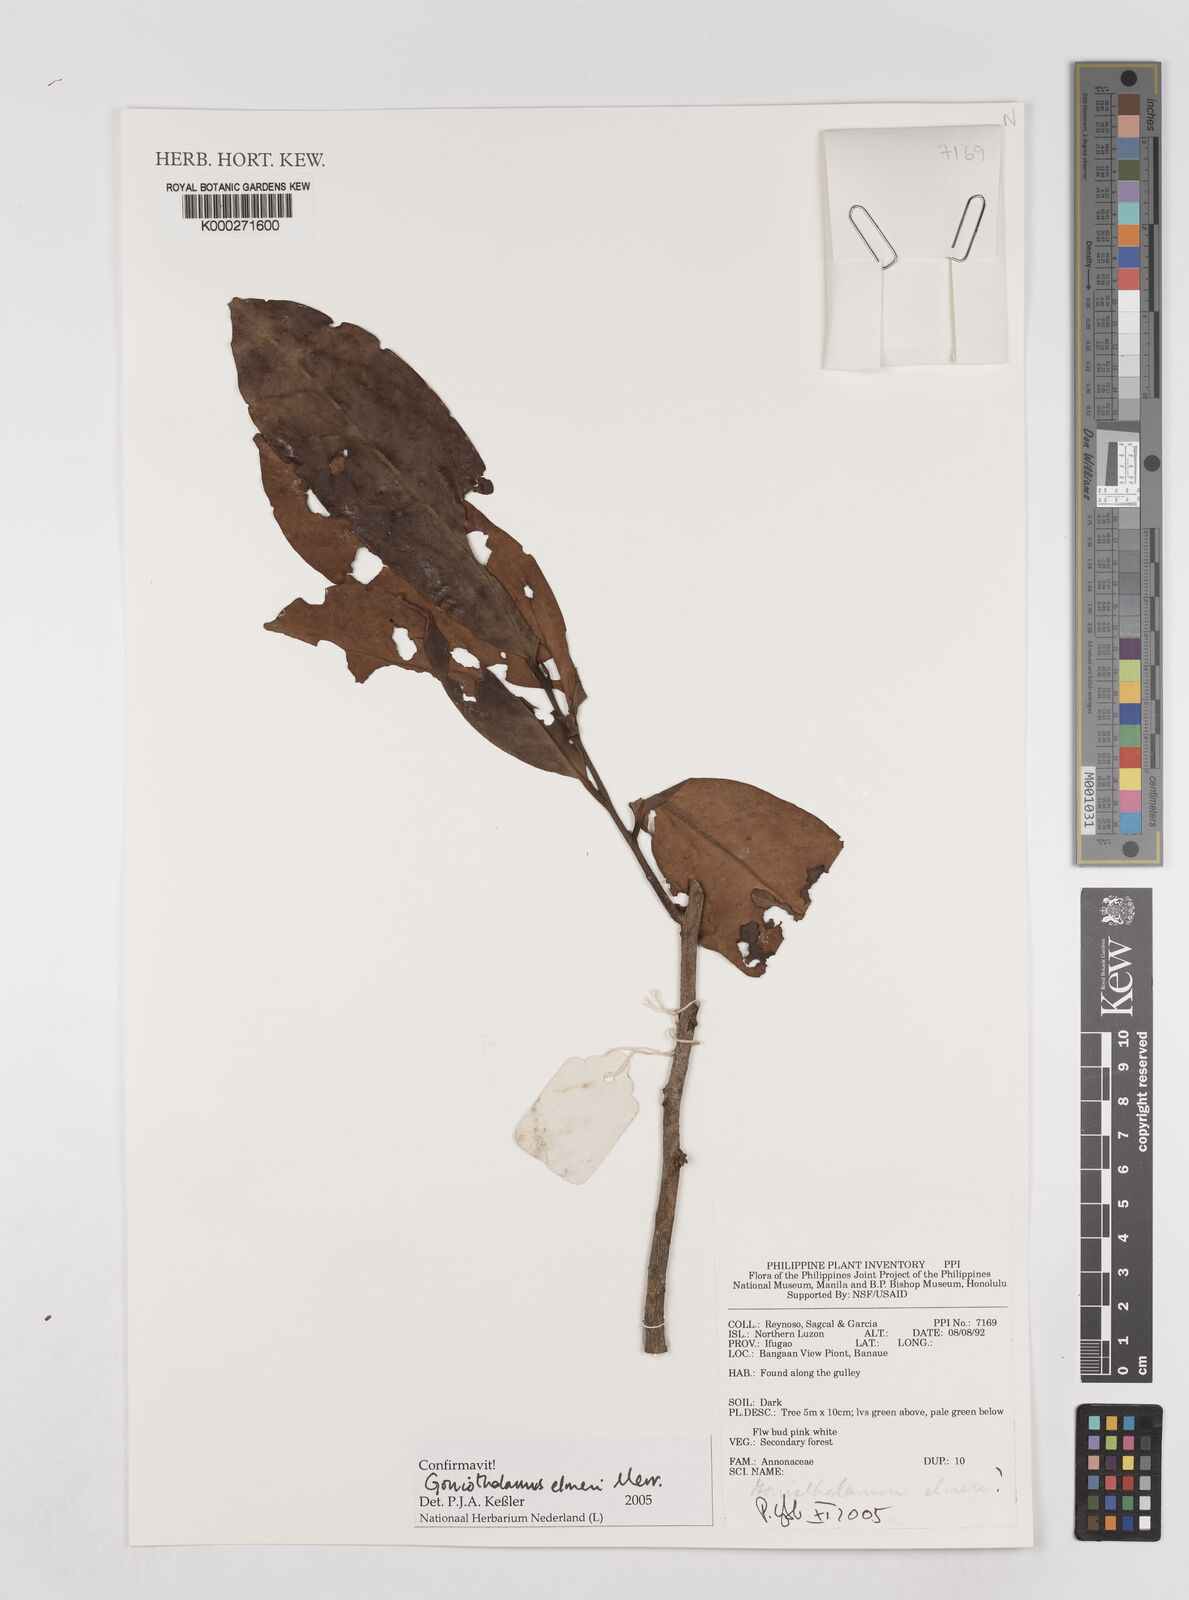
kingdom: Plantae
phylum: Tracheophyta
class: Magnoliopsida
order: Magnoliales
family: Annonaceae
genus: Goniothalamus
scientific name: Goniothalamus elmeri
